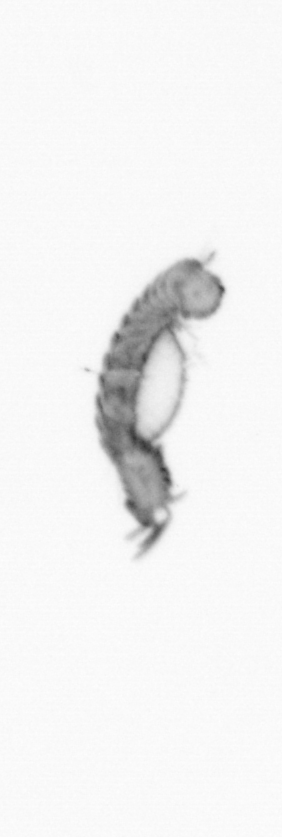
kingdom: Animalia
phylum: Annelida
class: Polychaeta
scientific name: Polychaeta
